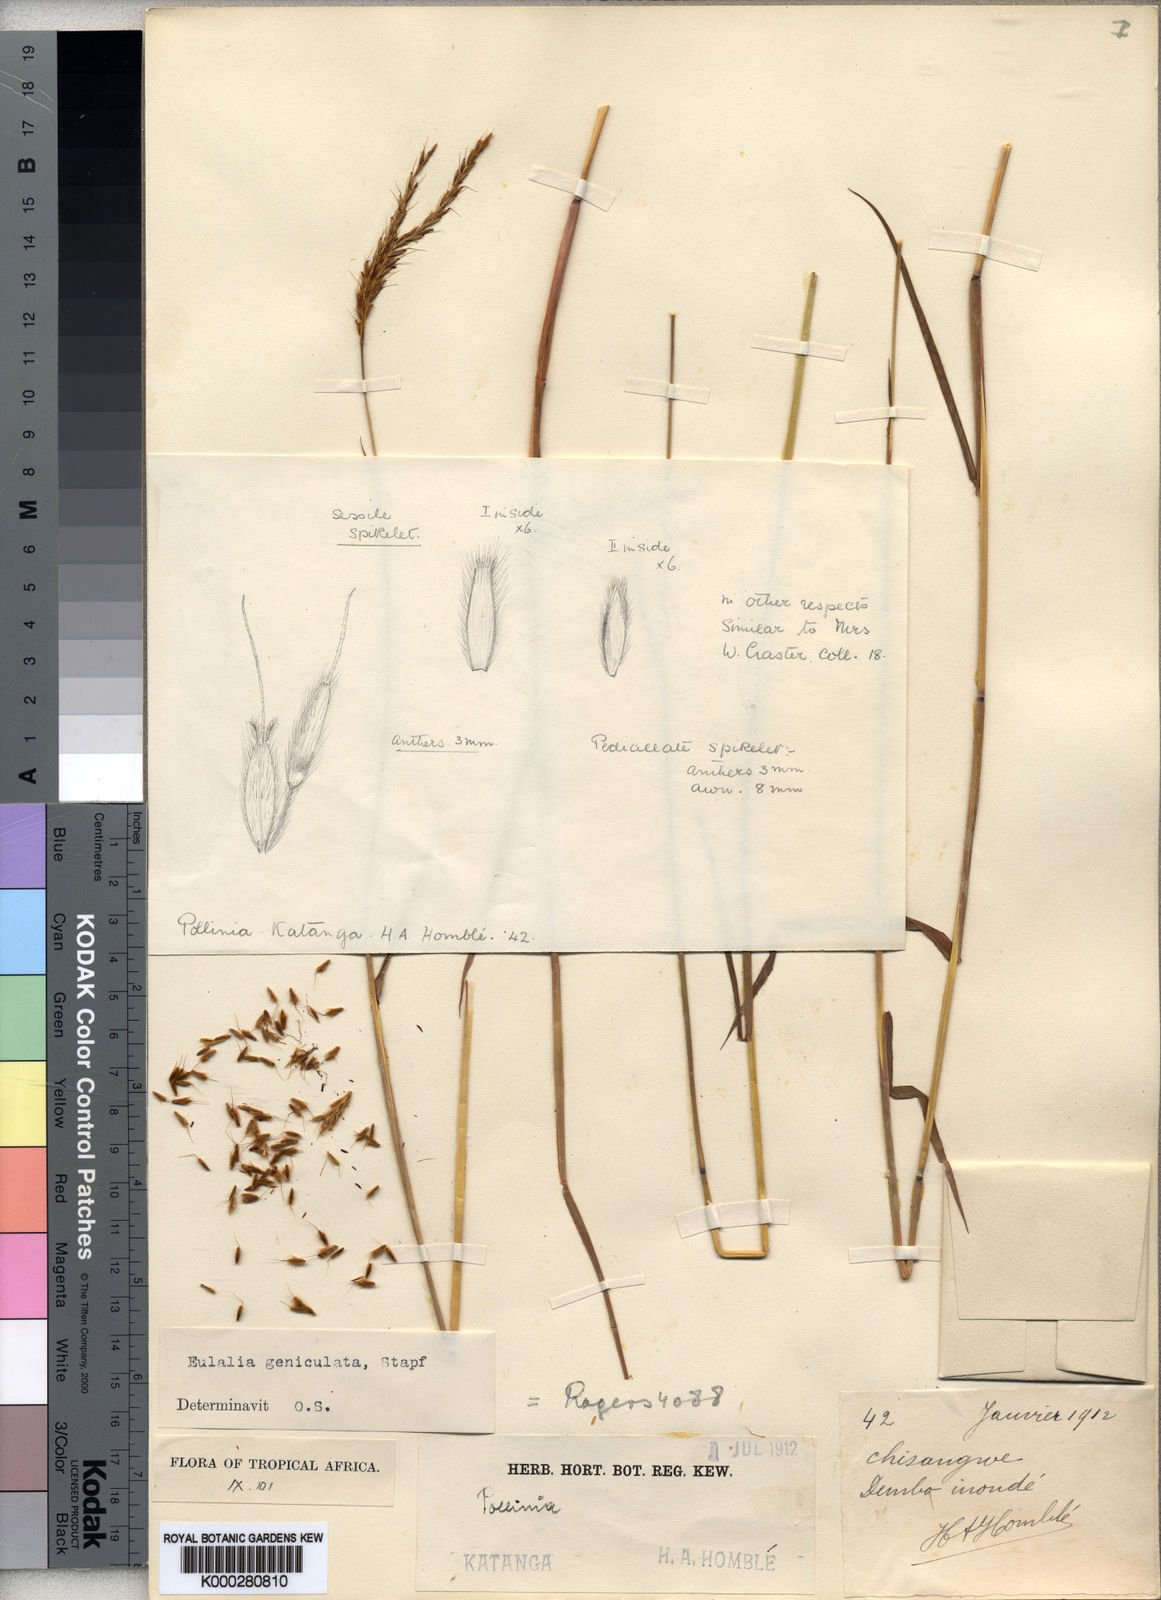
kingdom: Plantae
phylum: Tracheophyta
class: Liliopsida
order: Poales
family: Poaceae
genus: Eulalia
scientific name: Eulalia aurea
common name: Silky browntop
